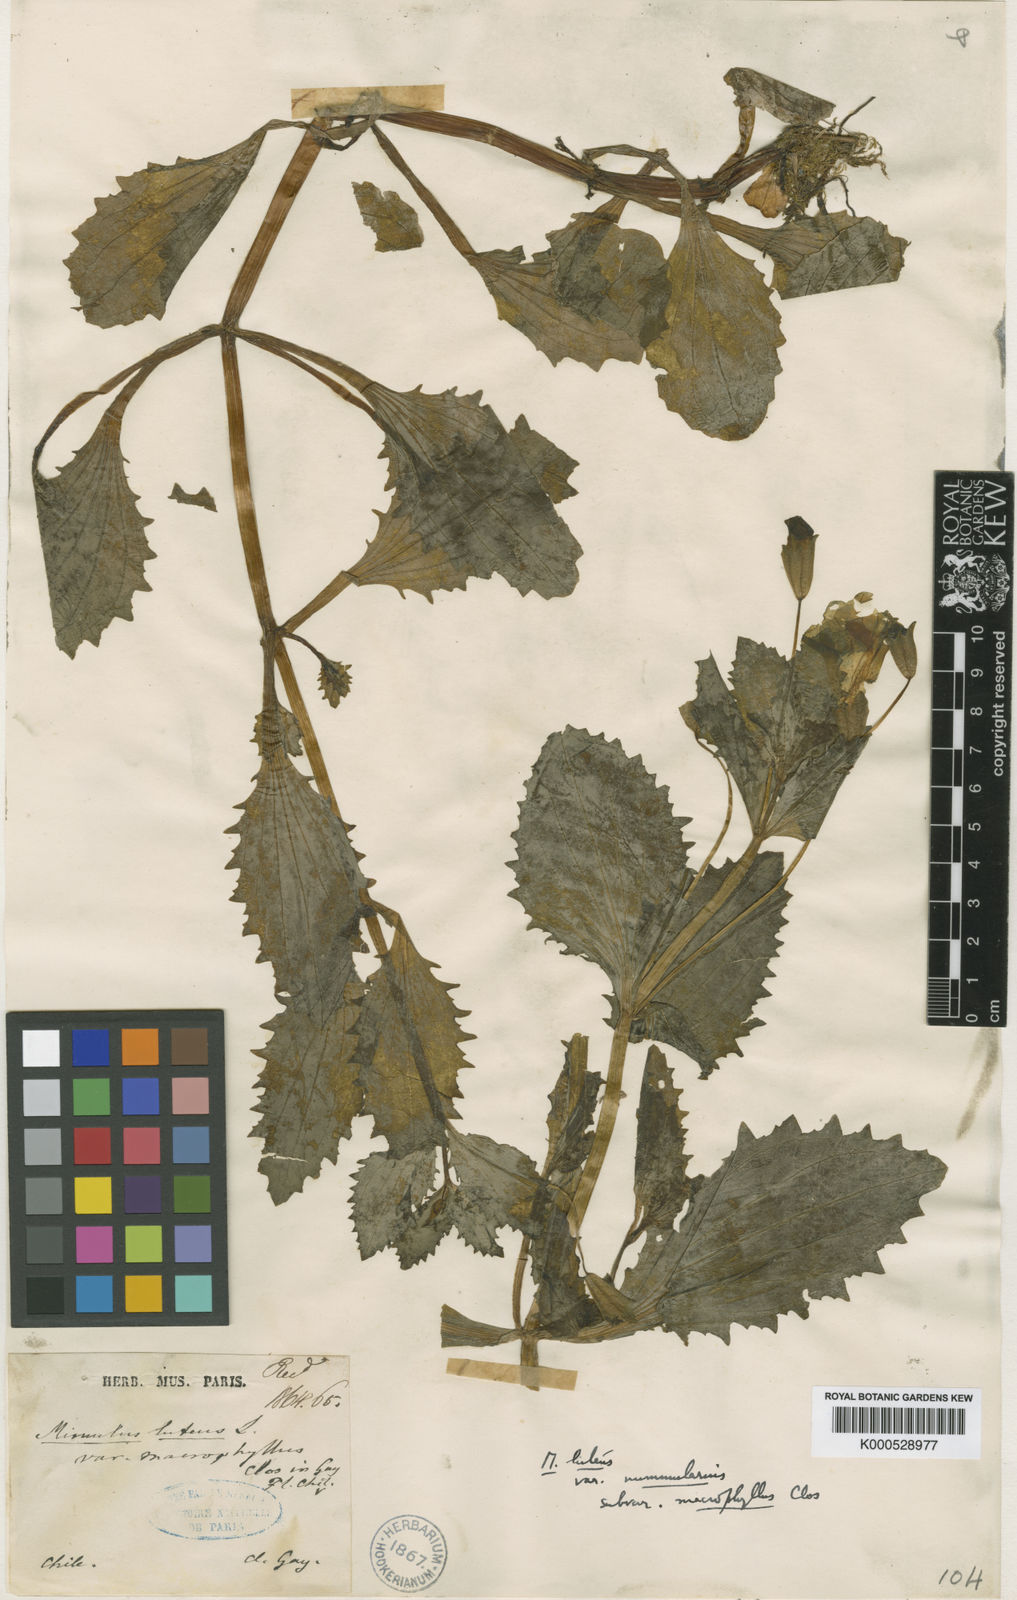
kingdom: Plantae
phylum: Tracheophyta
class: Magnoliopsida
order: Lamiales
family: Phrymaceae
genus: Erythranthe
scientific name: Erythranthe lutea
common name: Yellow monkey-flower
